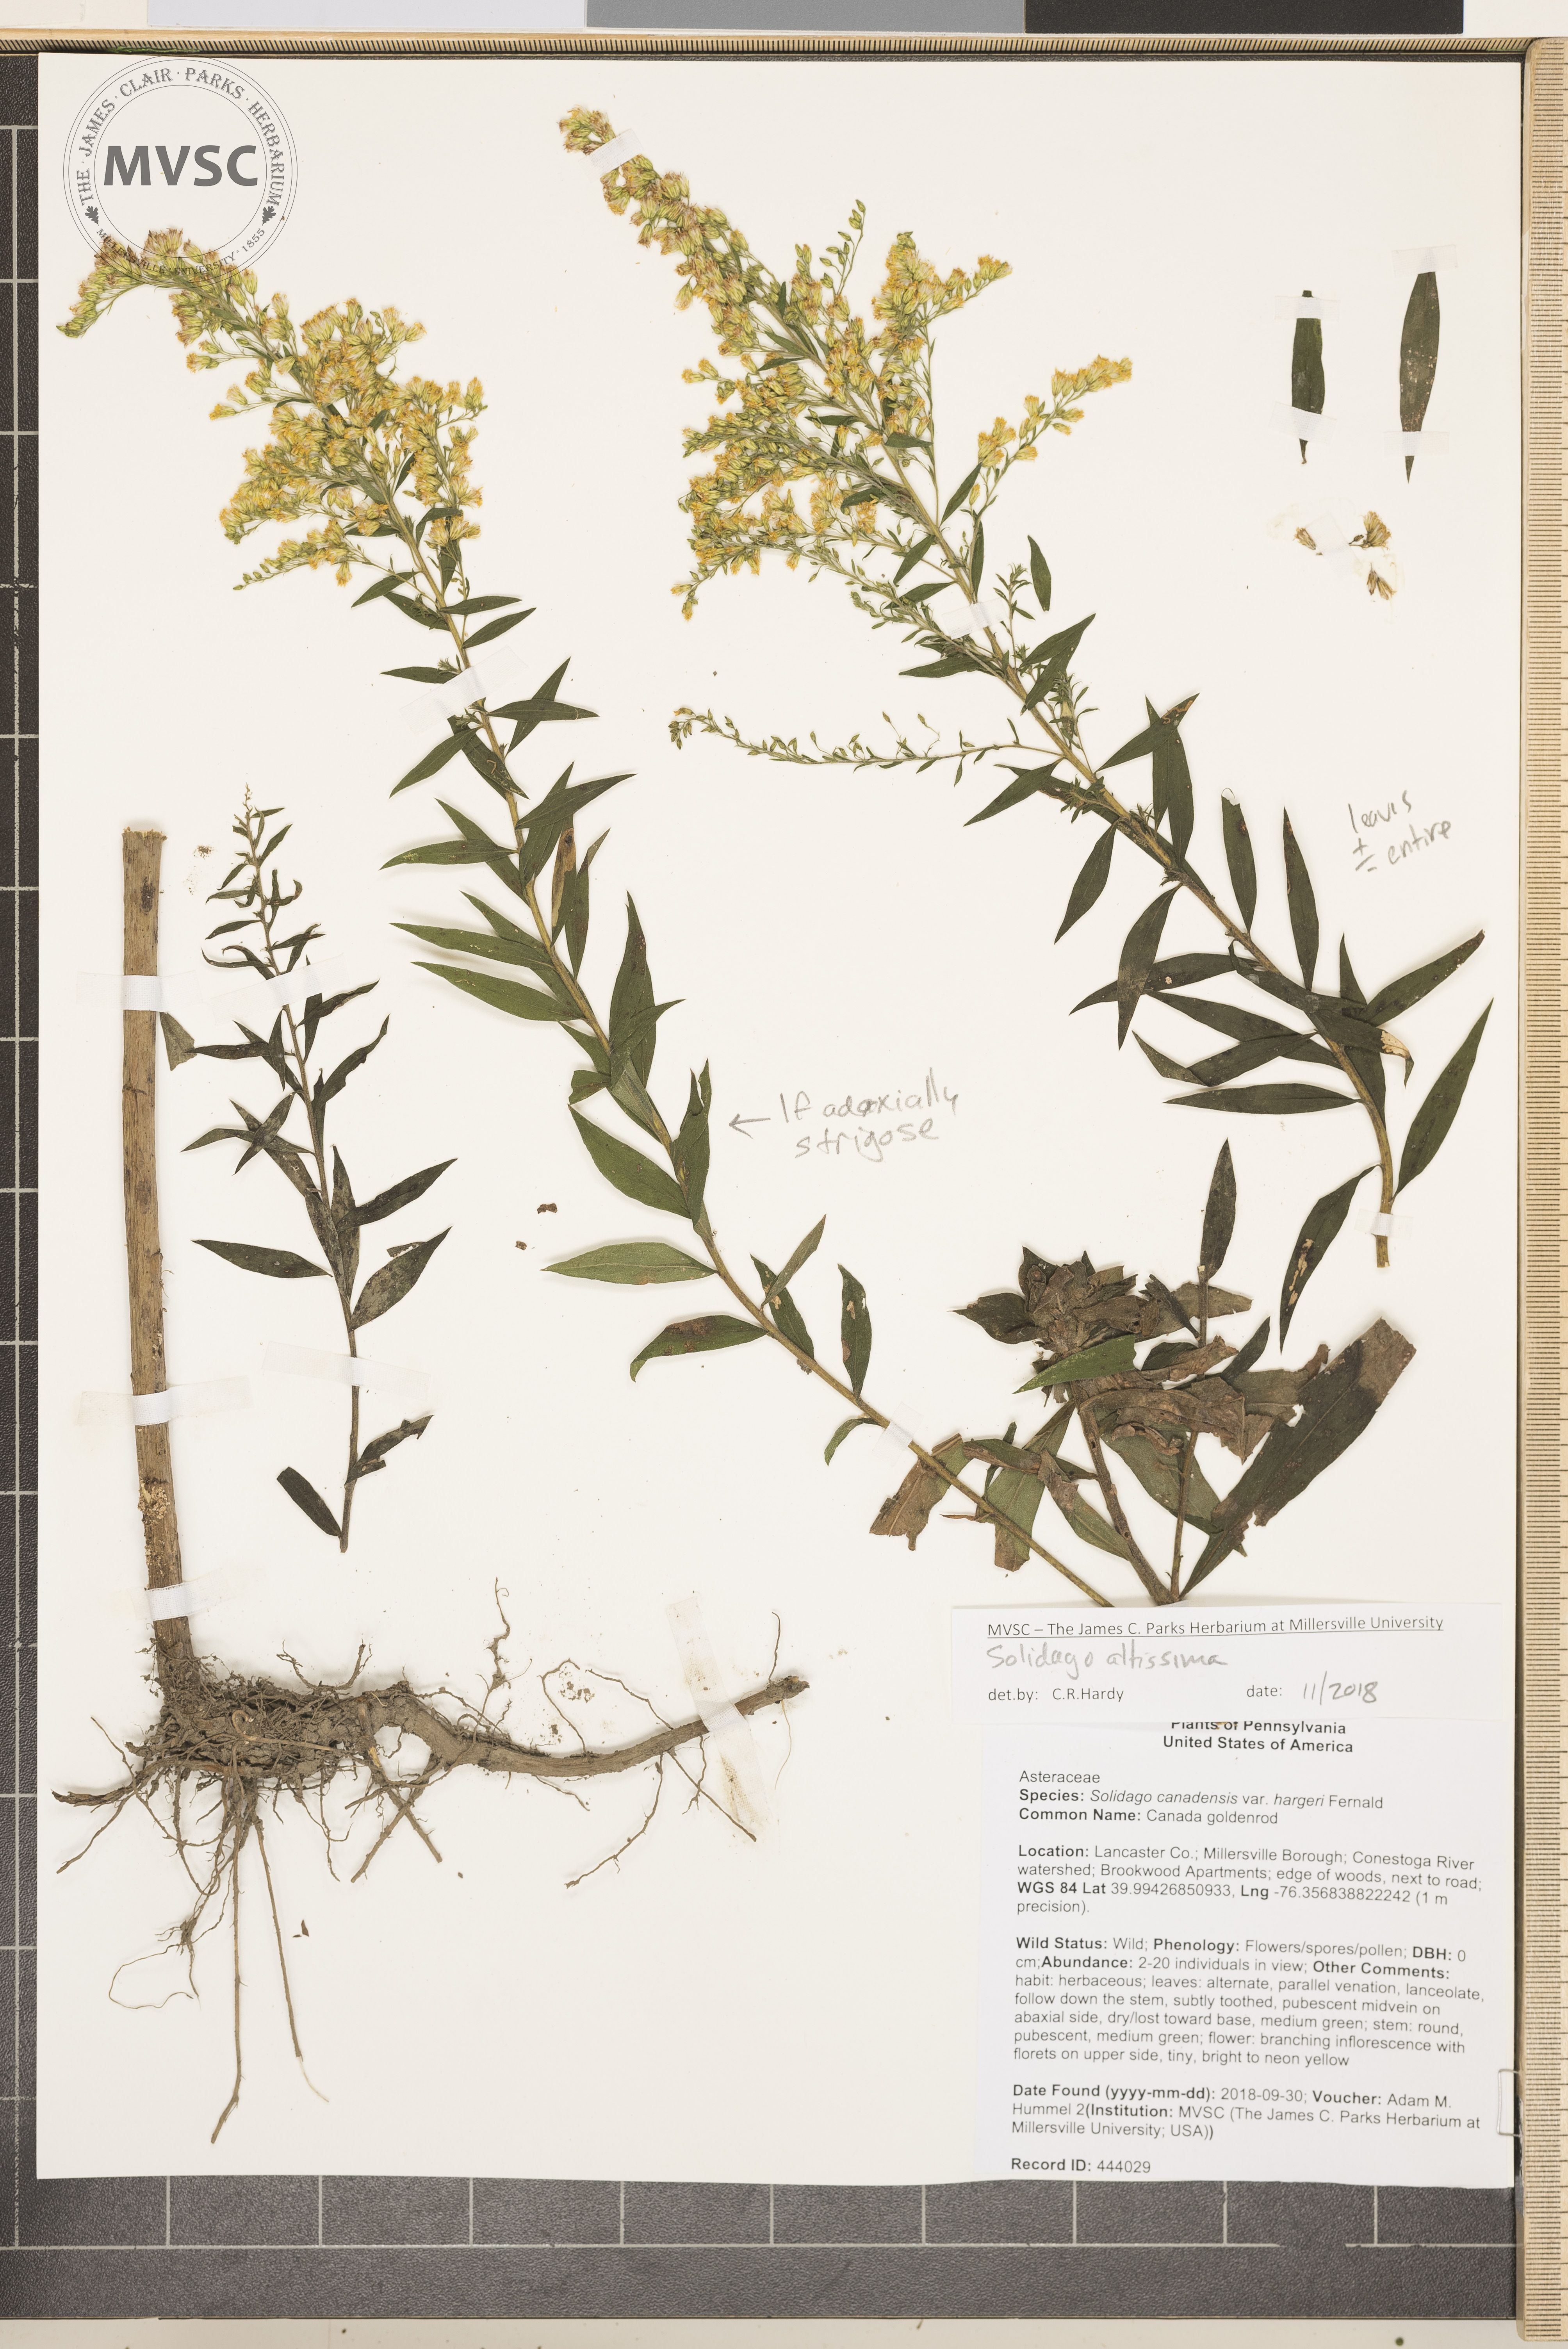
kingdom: Plantae
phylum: Tracheophyta
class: Magnoliopsida
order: Asterales
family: Asteraceae
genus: Solidago
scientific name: Solidago altissima
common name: Late goldenrod
